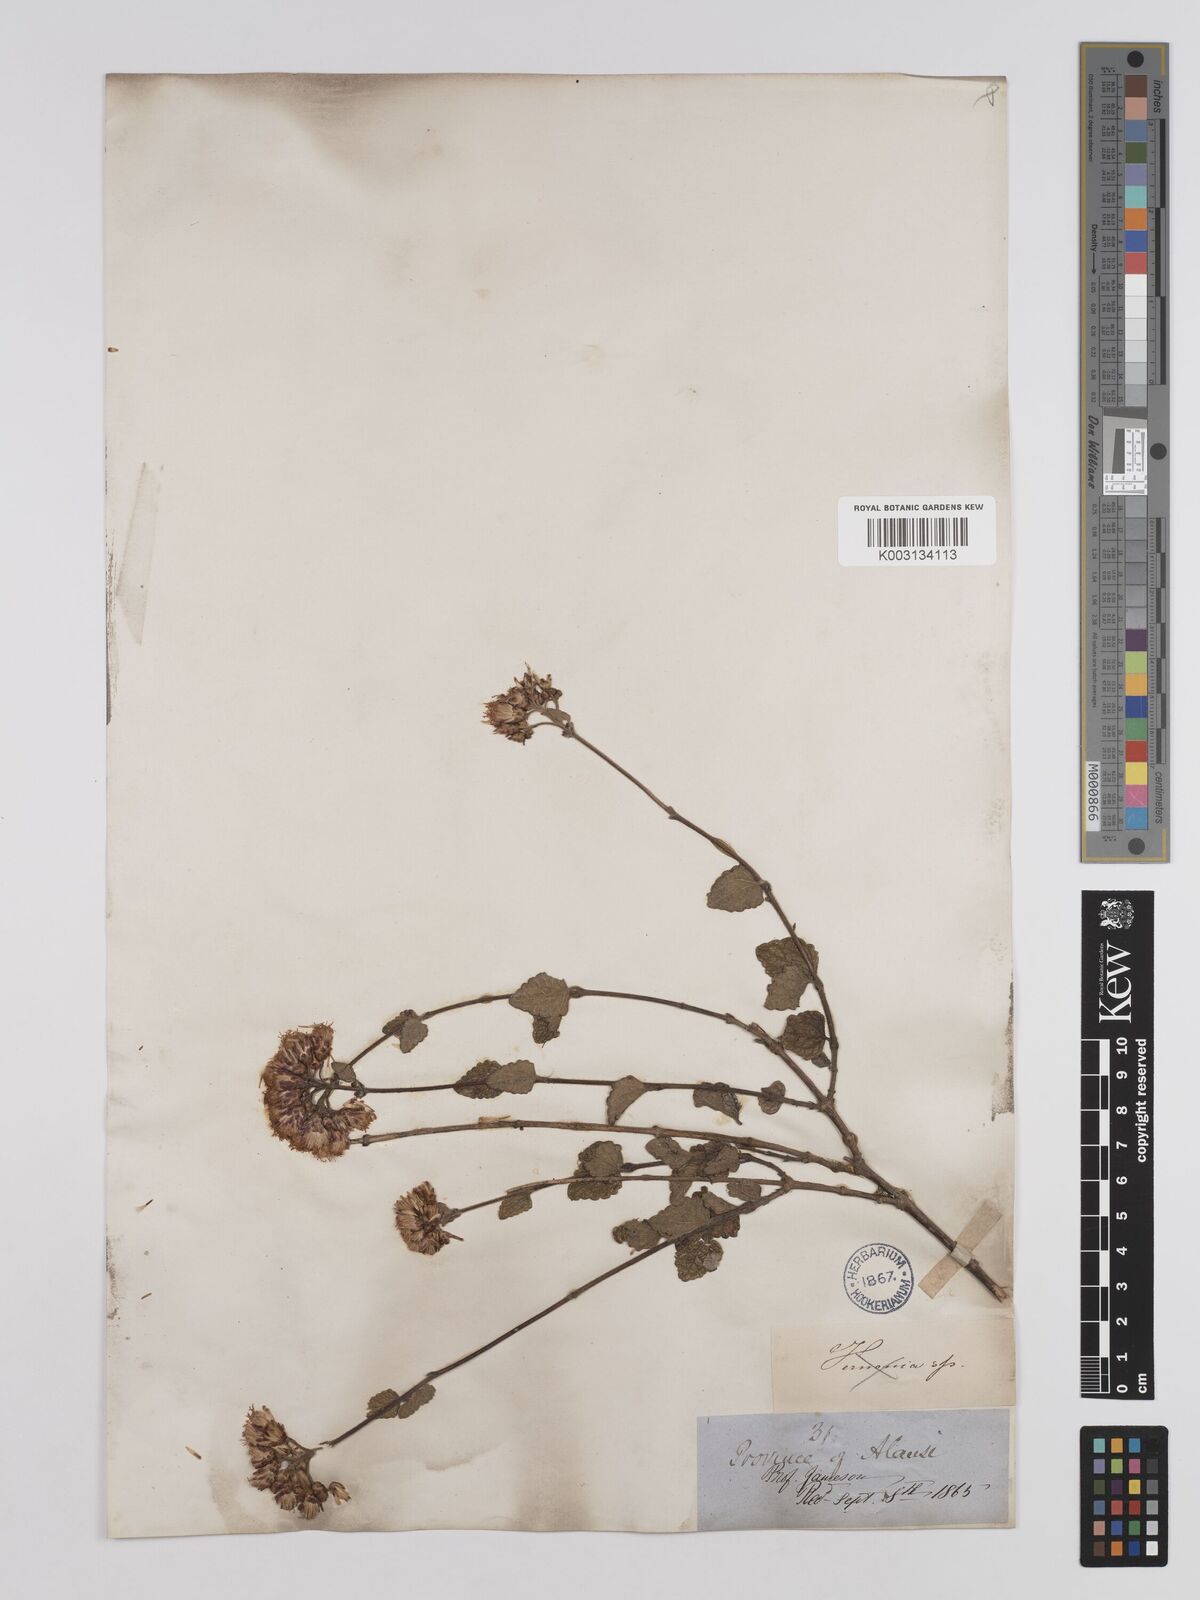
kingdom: Plantae
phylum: Tracheophyta
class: Magnoliopsida
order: Asterales
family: Asteraceae
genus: Cronquistianthus
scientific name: Cronquistianthus chamaedrifolius
